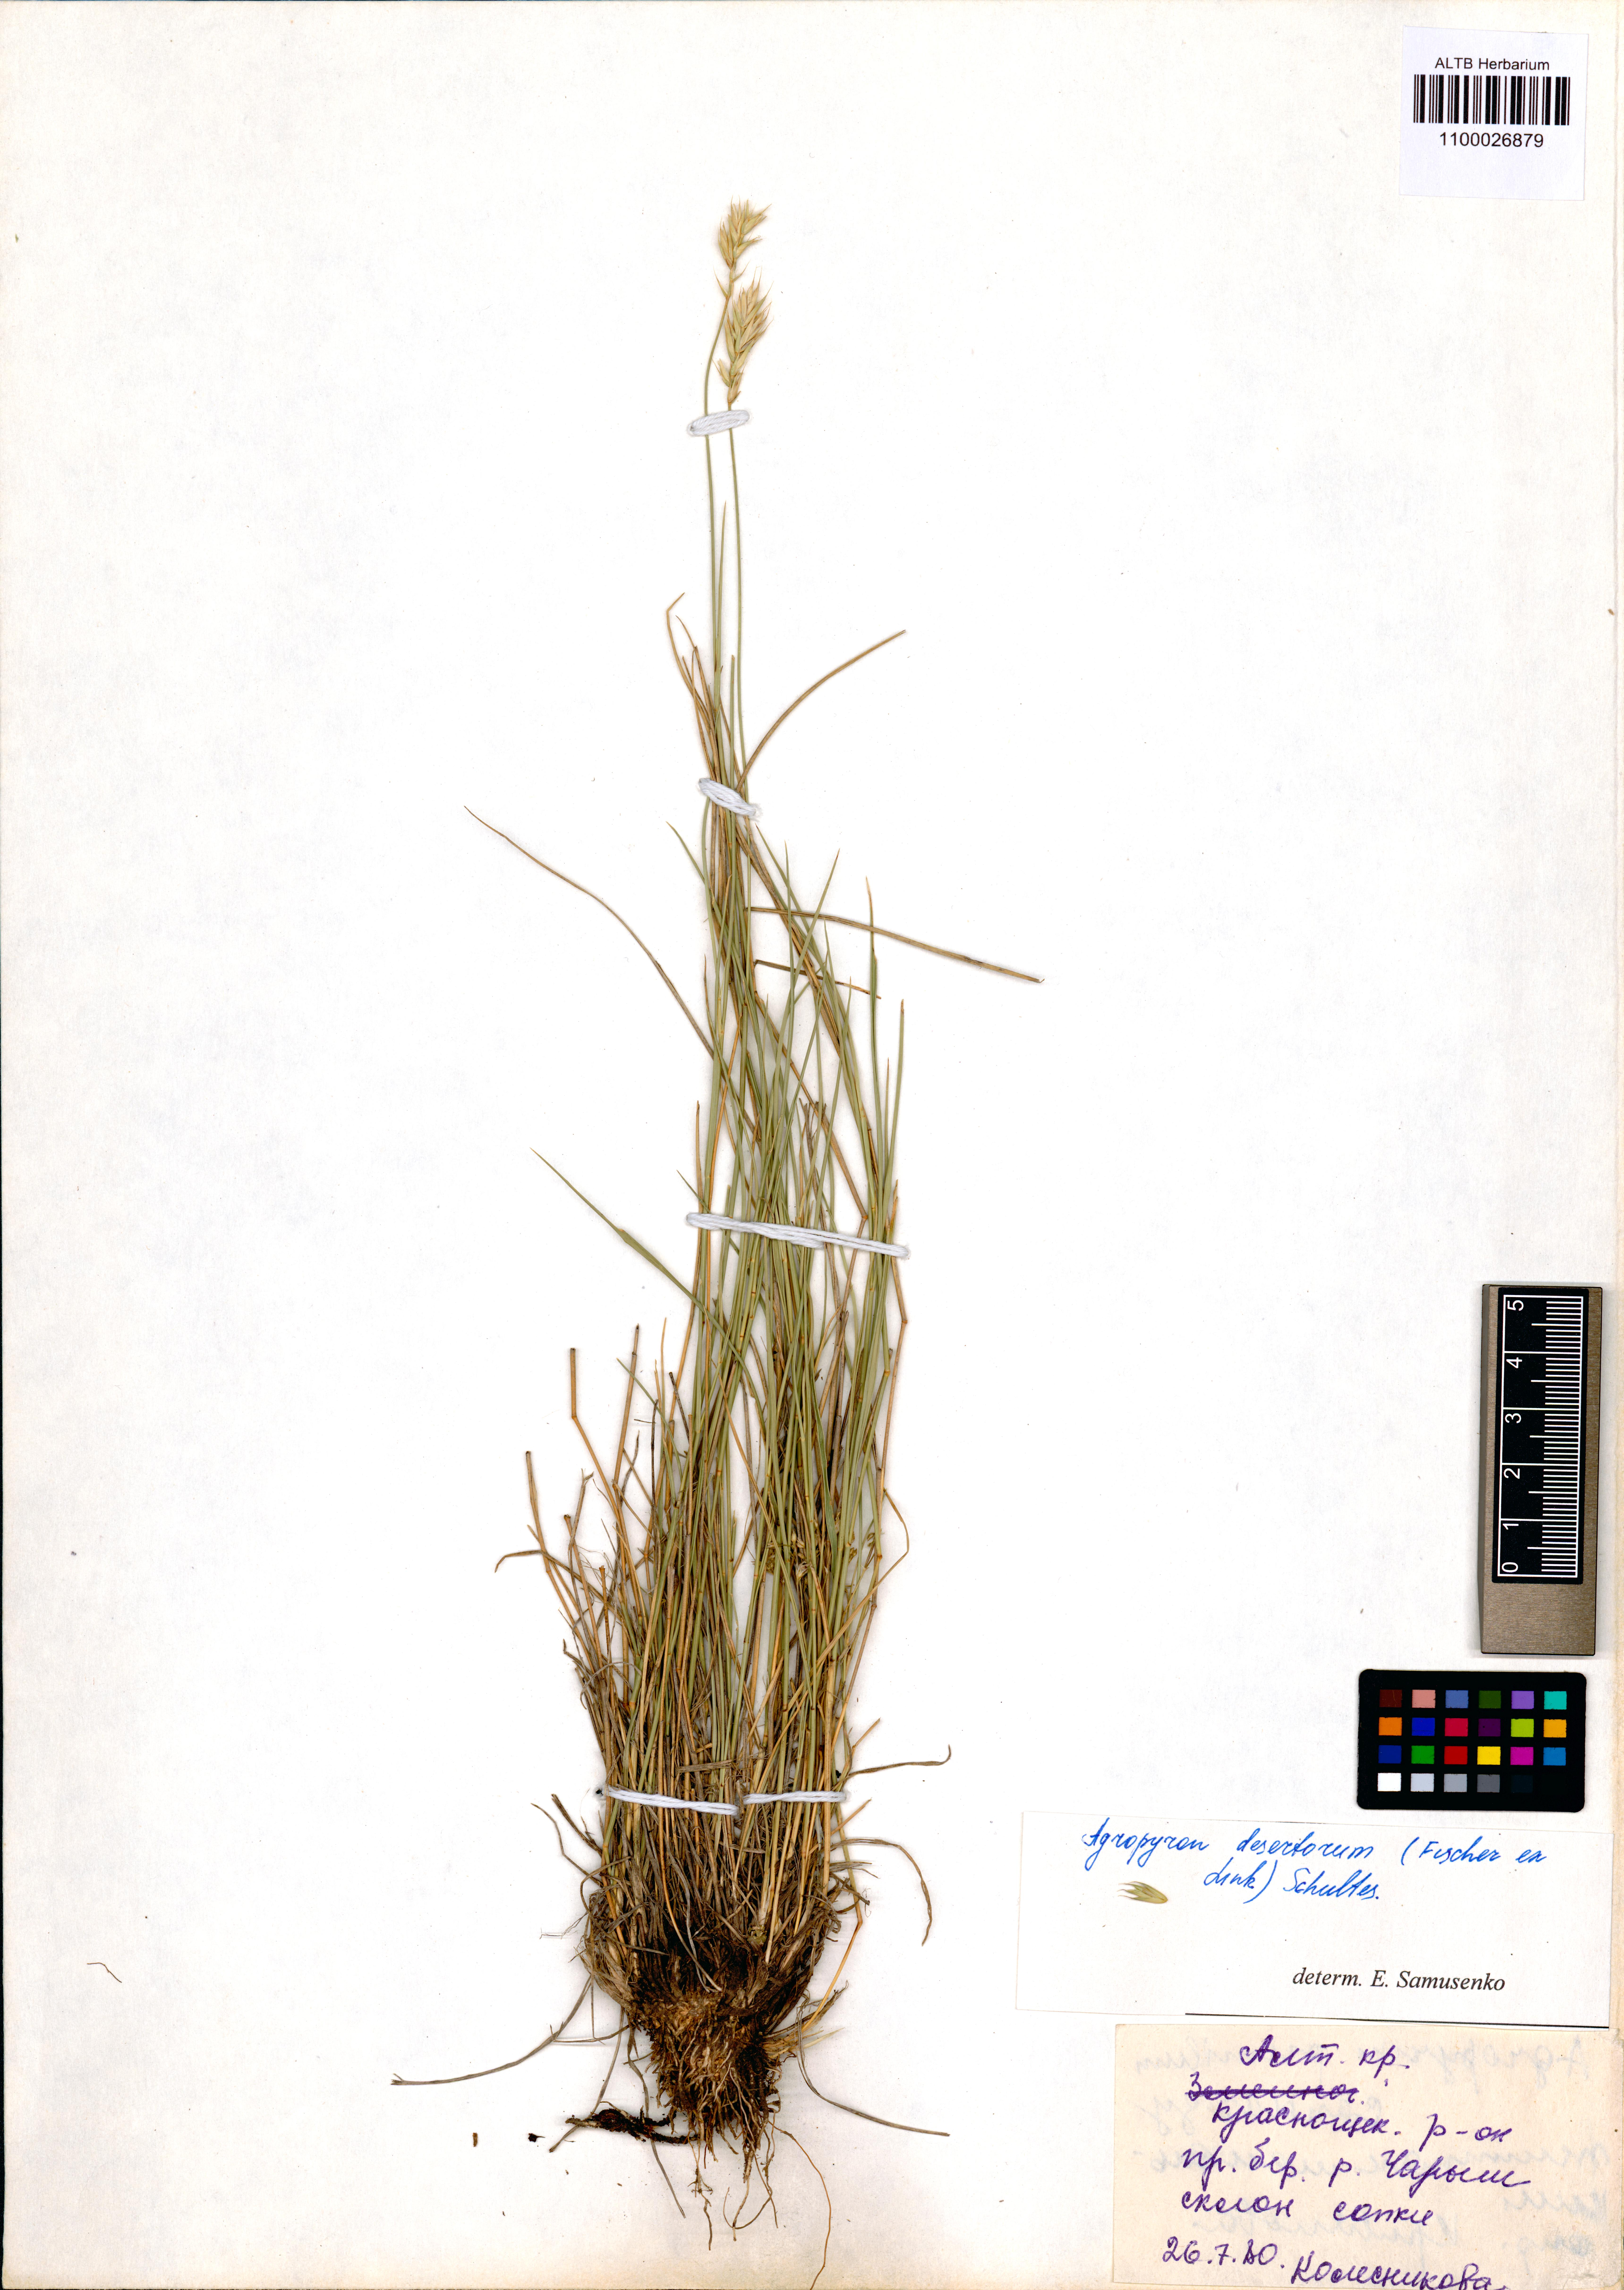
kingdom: Plantae
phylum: Tracheophyta
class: Liliopsida
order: Poales
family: Poaceae
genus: Agropyron
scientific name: Agropyron desertorum
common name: Desert wheatgrass
